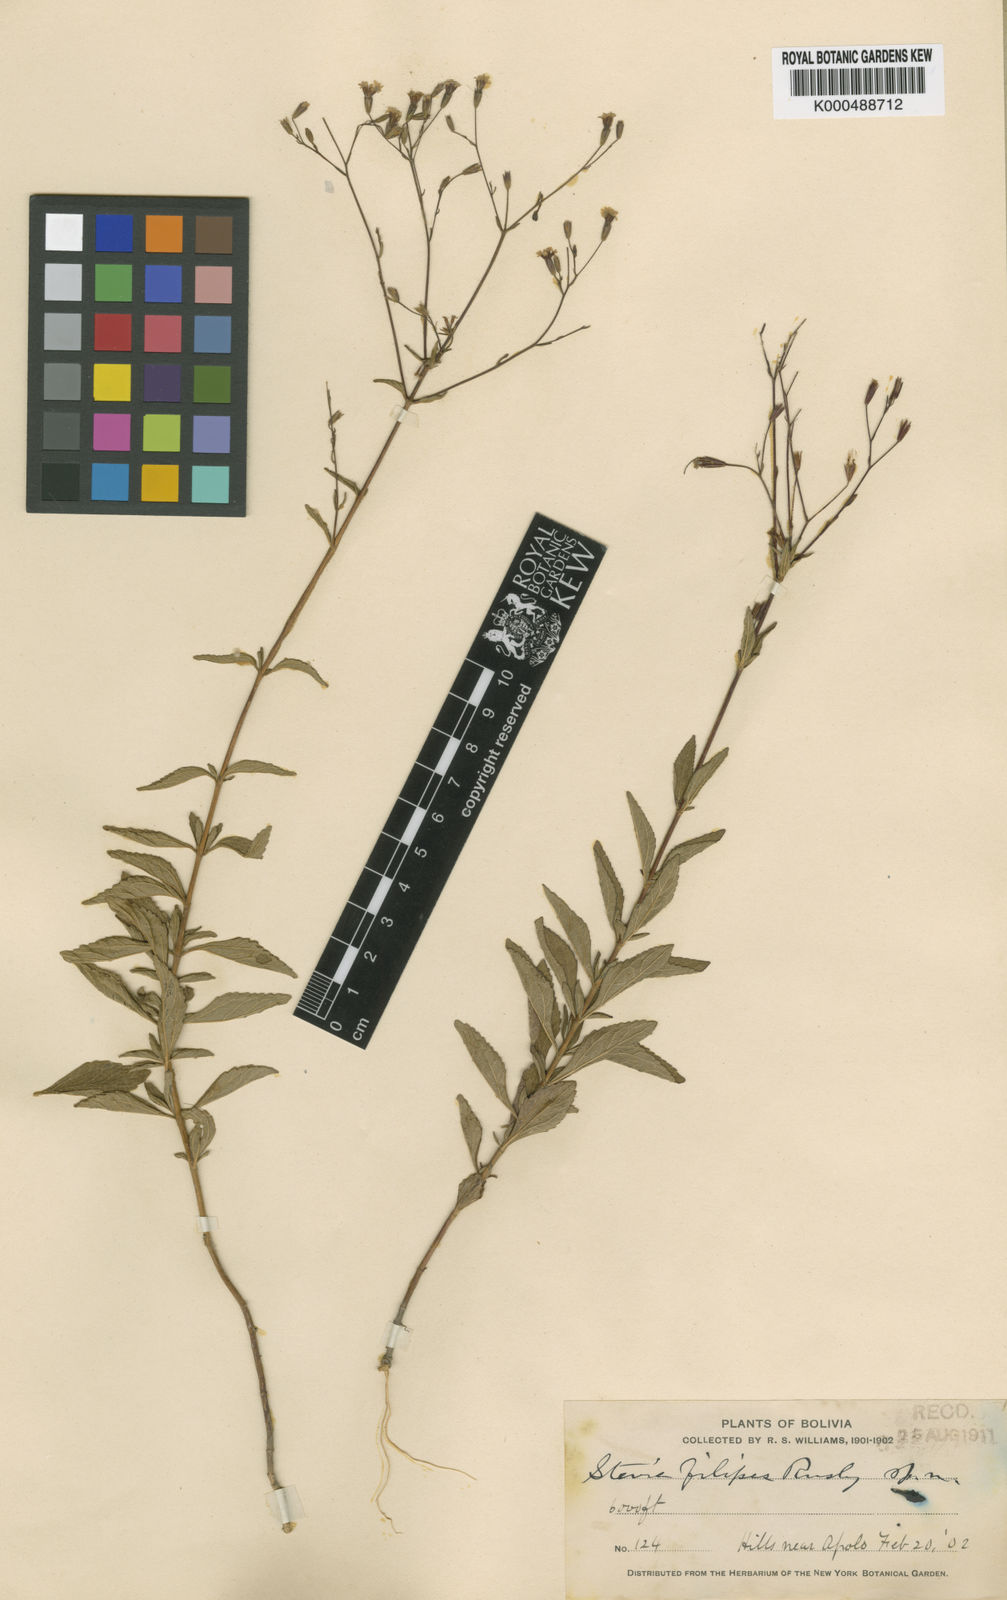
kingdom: Plantae
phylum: Tracheophyta
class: Magnoliopsida
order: Asterales
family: Asteraceae
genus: Stevia
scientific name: Stevia filipes
